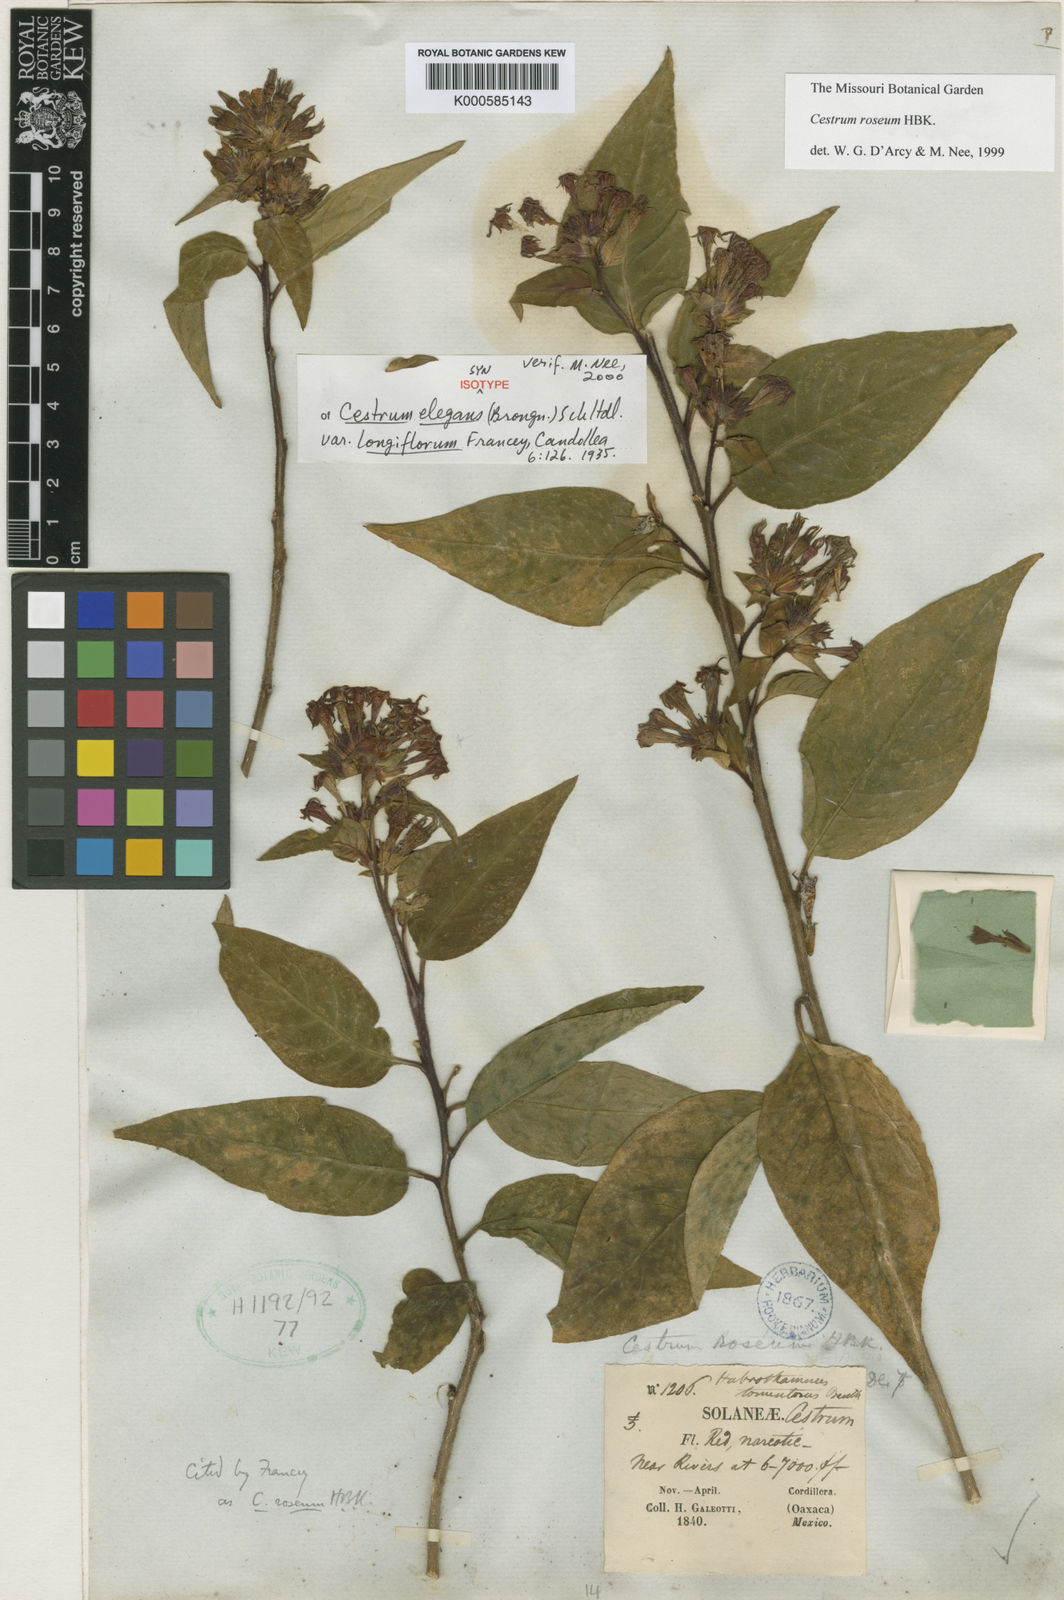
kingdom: Plantae
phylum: Tracheophyta
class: Magnoliopsida
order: Solanales
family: Solanaceae
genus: Cestrum
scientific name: Cestrum elegans
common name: Crimson cestrum
